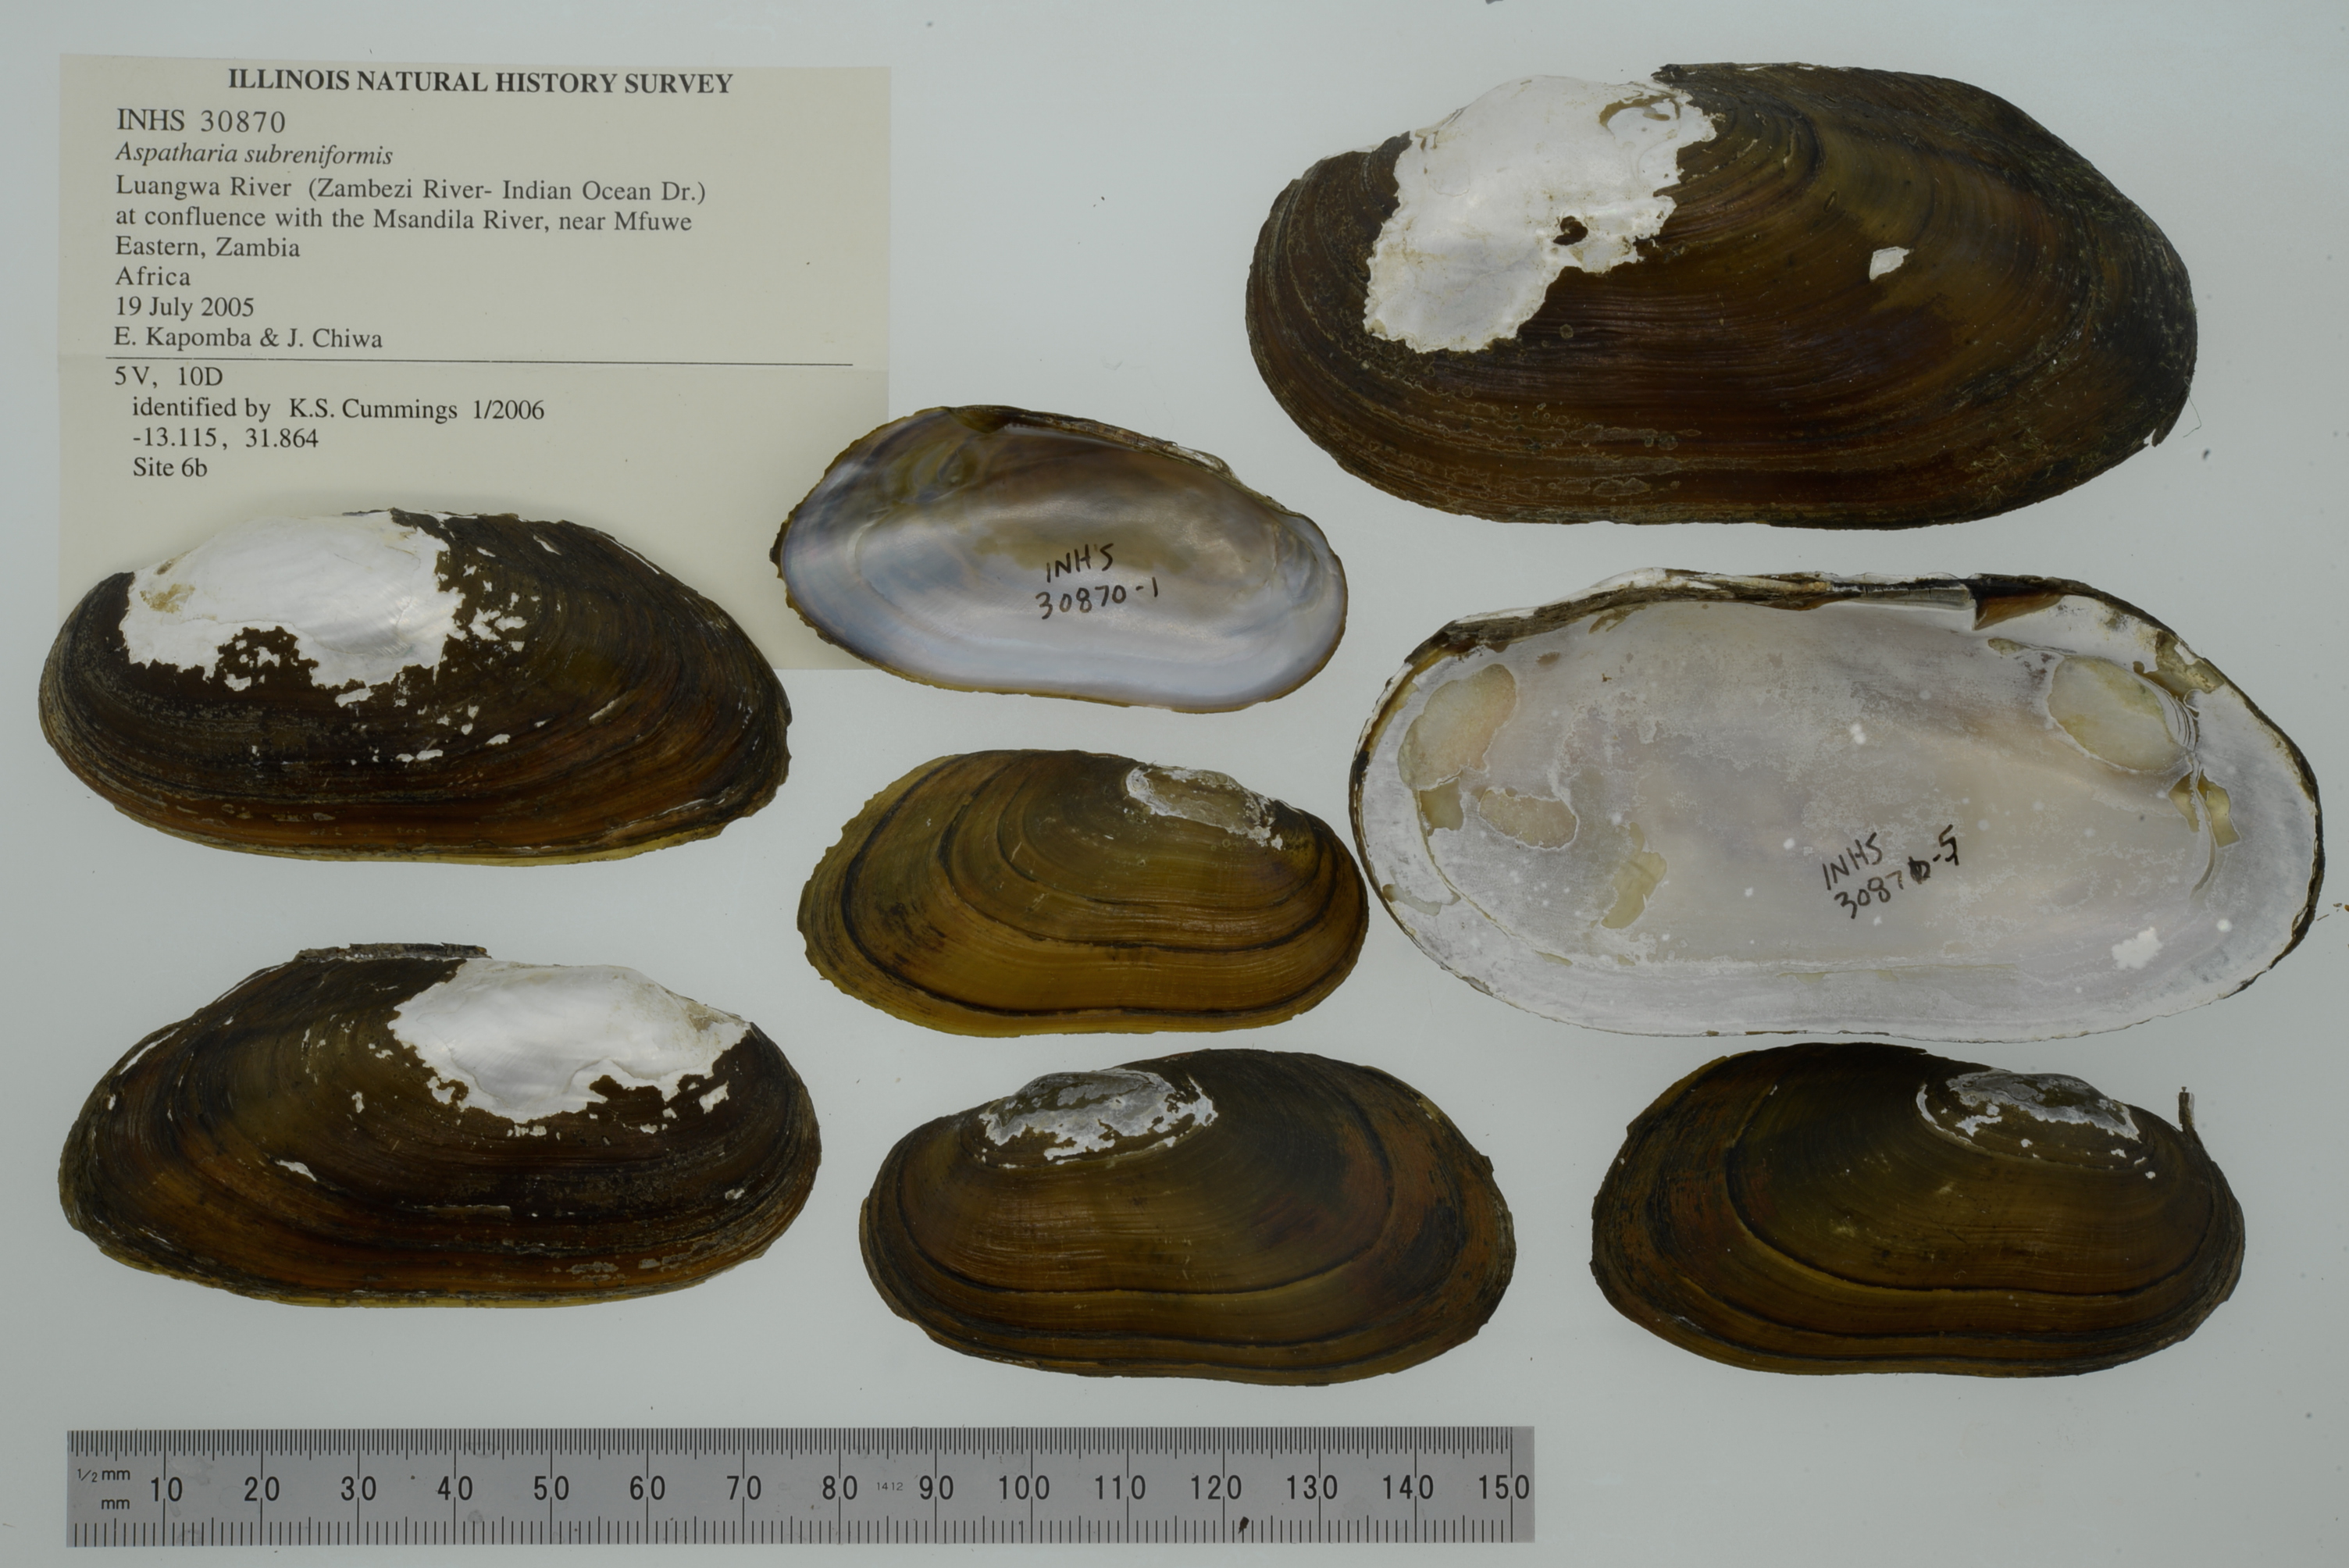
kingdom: Animalia
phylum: Mollusca
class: Bivalvia
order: Unionida
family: Iridinidae
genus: Aspatharia
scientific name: Aspatharia subreniformis
